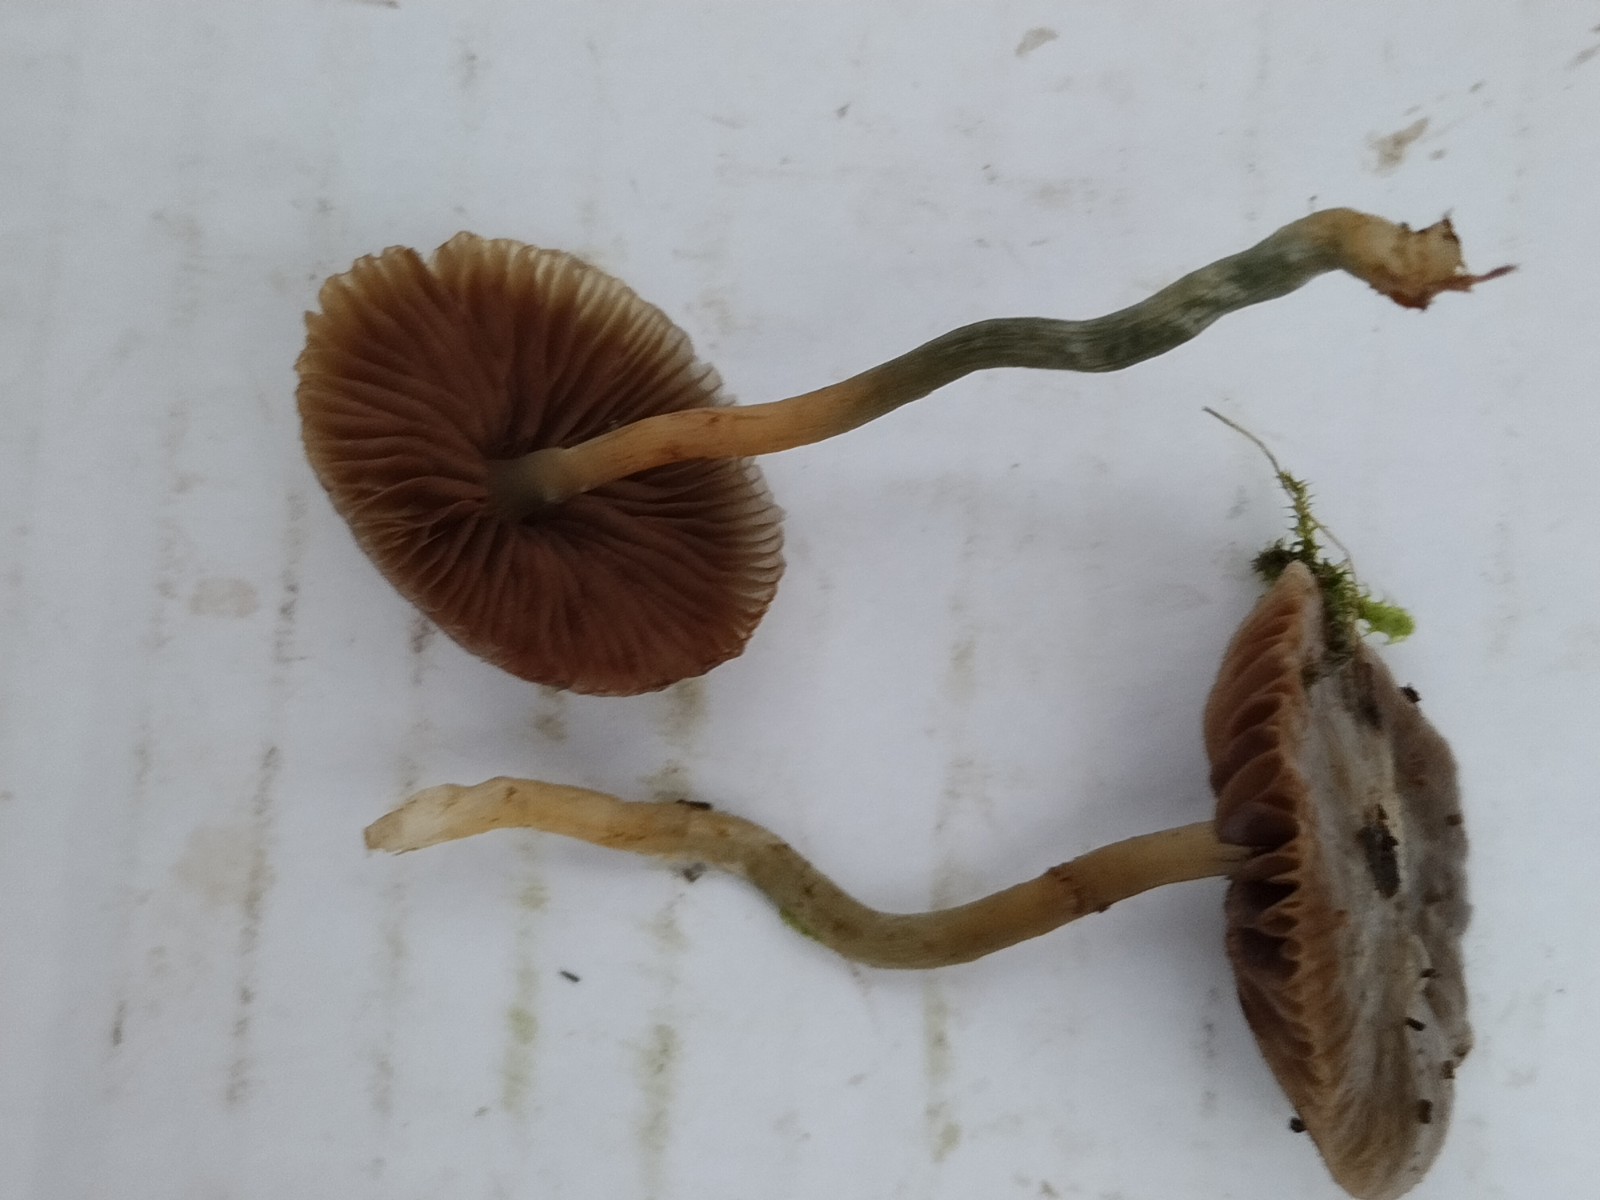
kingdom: Fungi
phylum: Basidiomycota
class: Agaricomycetes
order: Agaricales
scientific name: Agaricales
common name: champignonordenen
